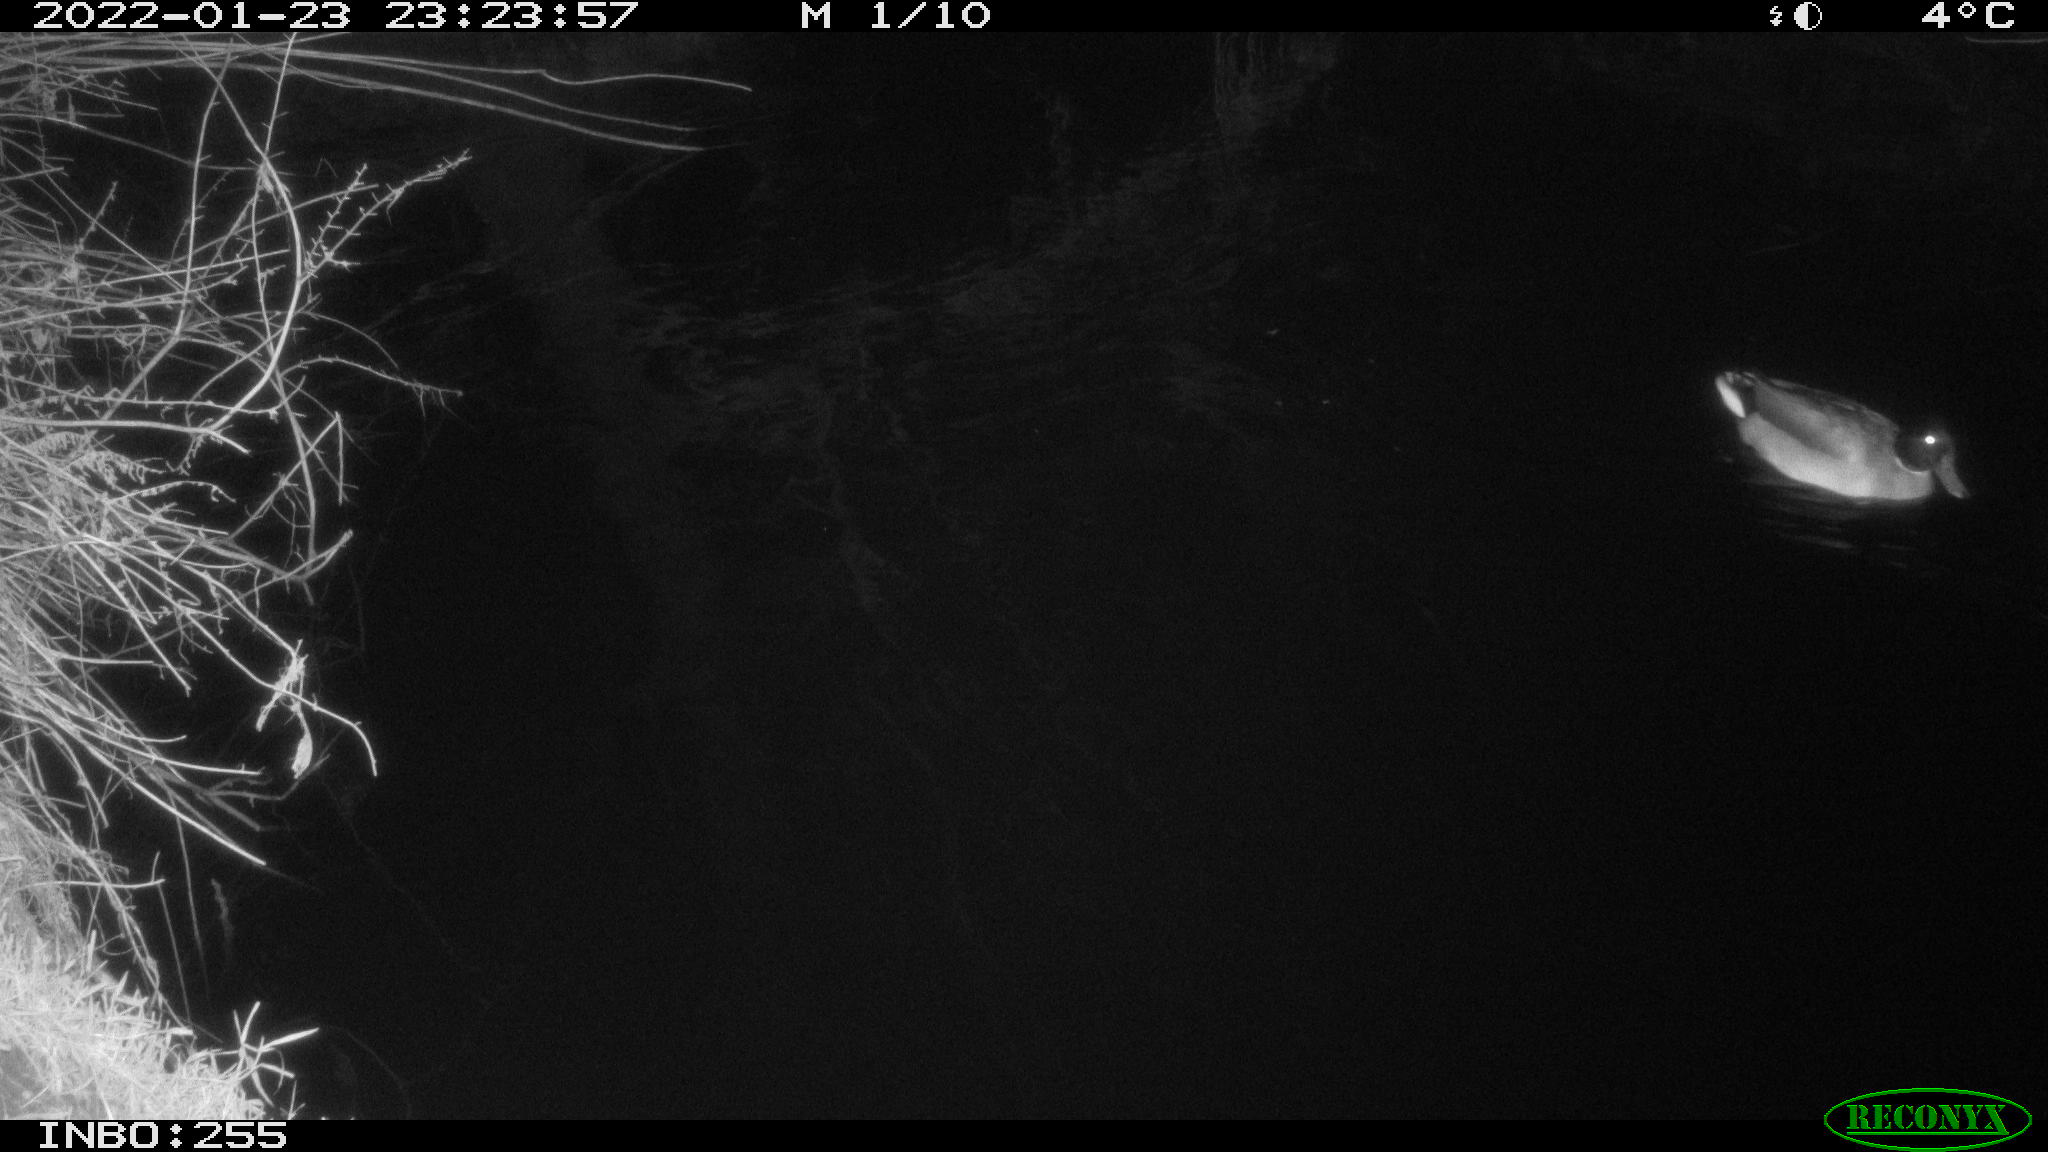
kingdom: Animalia
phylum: Chordata
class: Aves
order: Anseriformes
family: Anatidae
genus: Anas
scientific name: Anas
